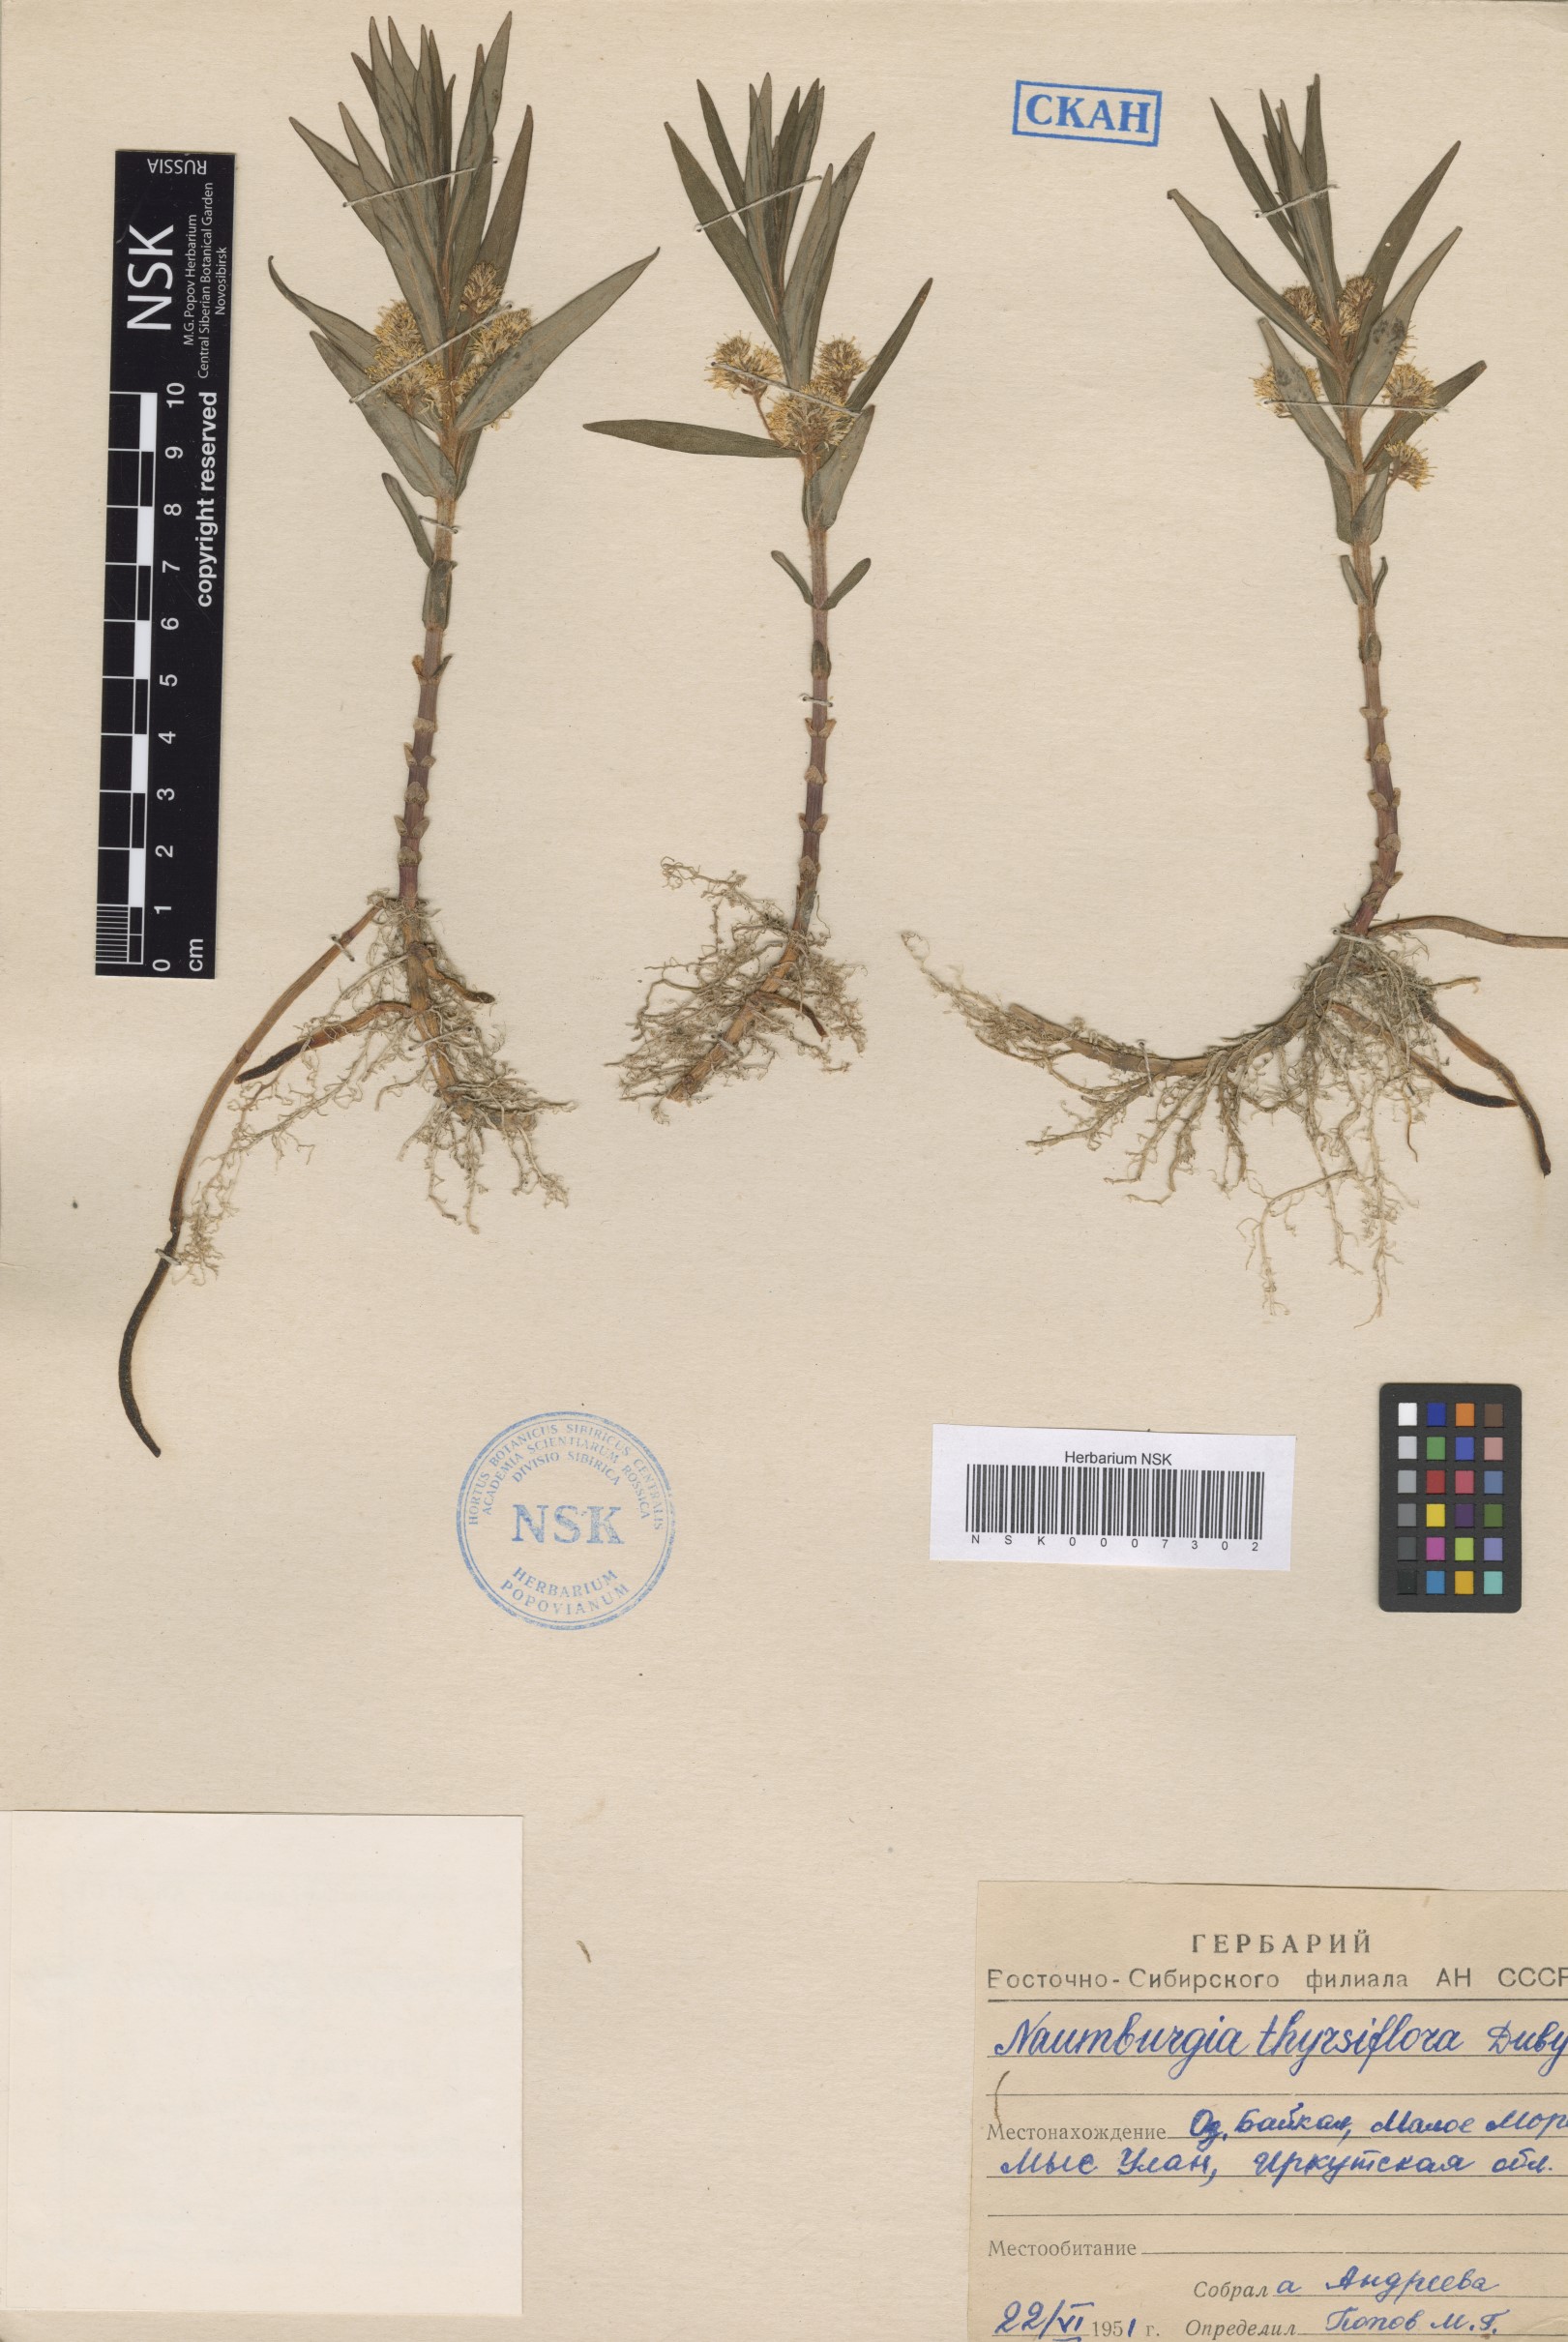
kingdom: Plantae
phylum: Tracheophyta
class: Magnoliopsida
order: Ericales
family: Primulaceae
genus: Lysimachia
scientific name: Lysimachia thyrsiflora
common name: Tufted loosestrife
